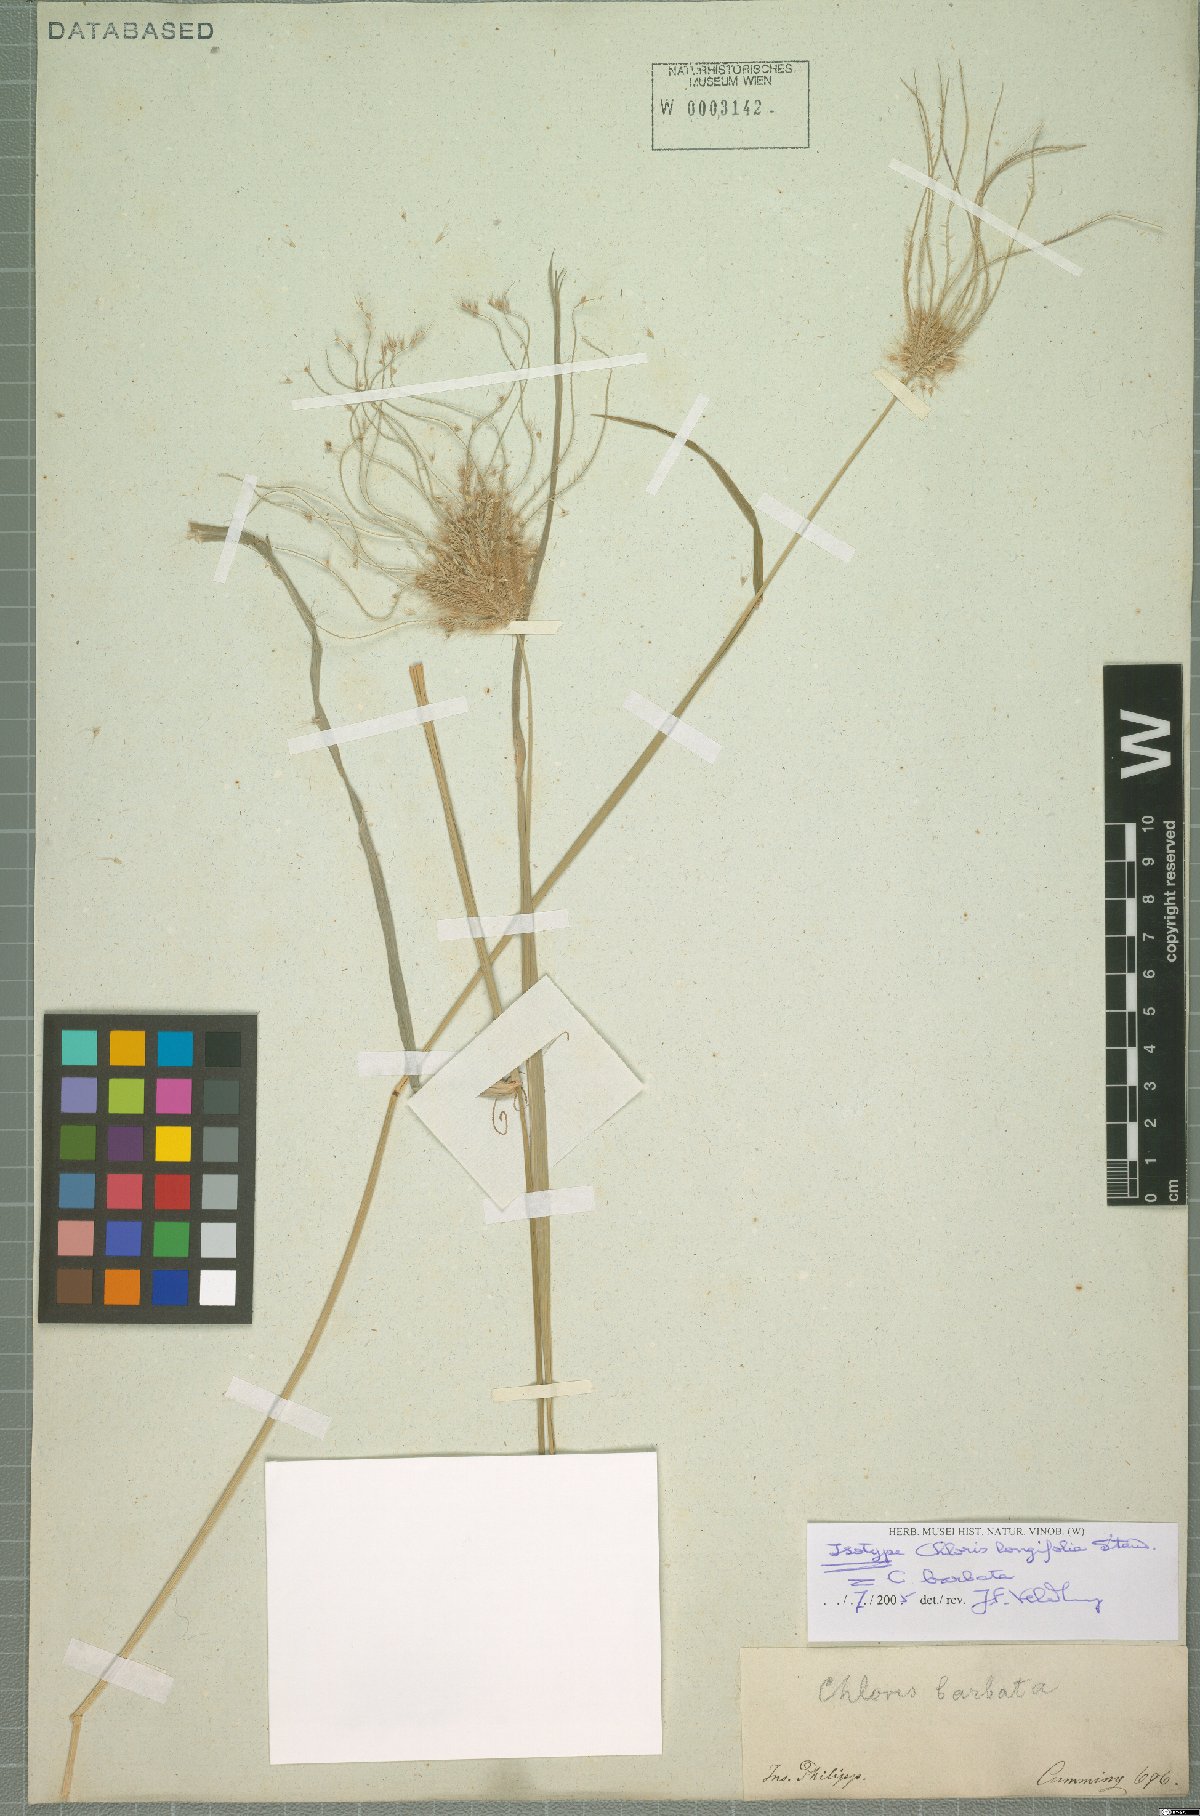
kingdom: Plantae
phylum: Tracheophyta
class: Liliopsida
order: Poales
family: Poaceae
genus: Chloris
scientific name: Chloris barbata
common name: Swollen fingergrass
